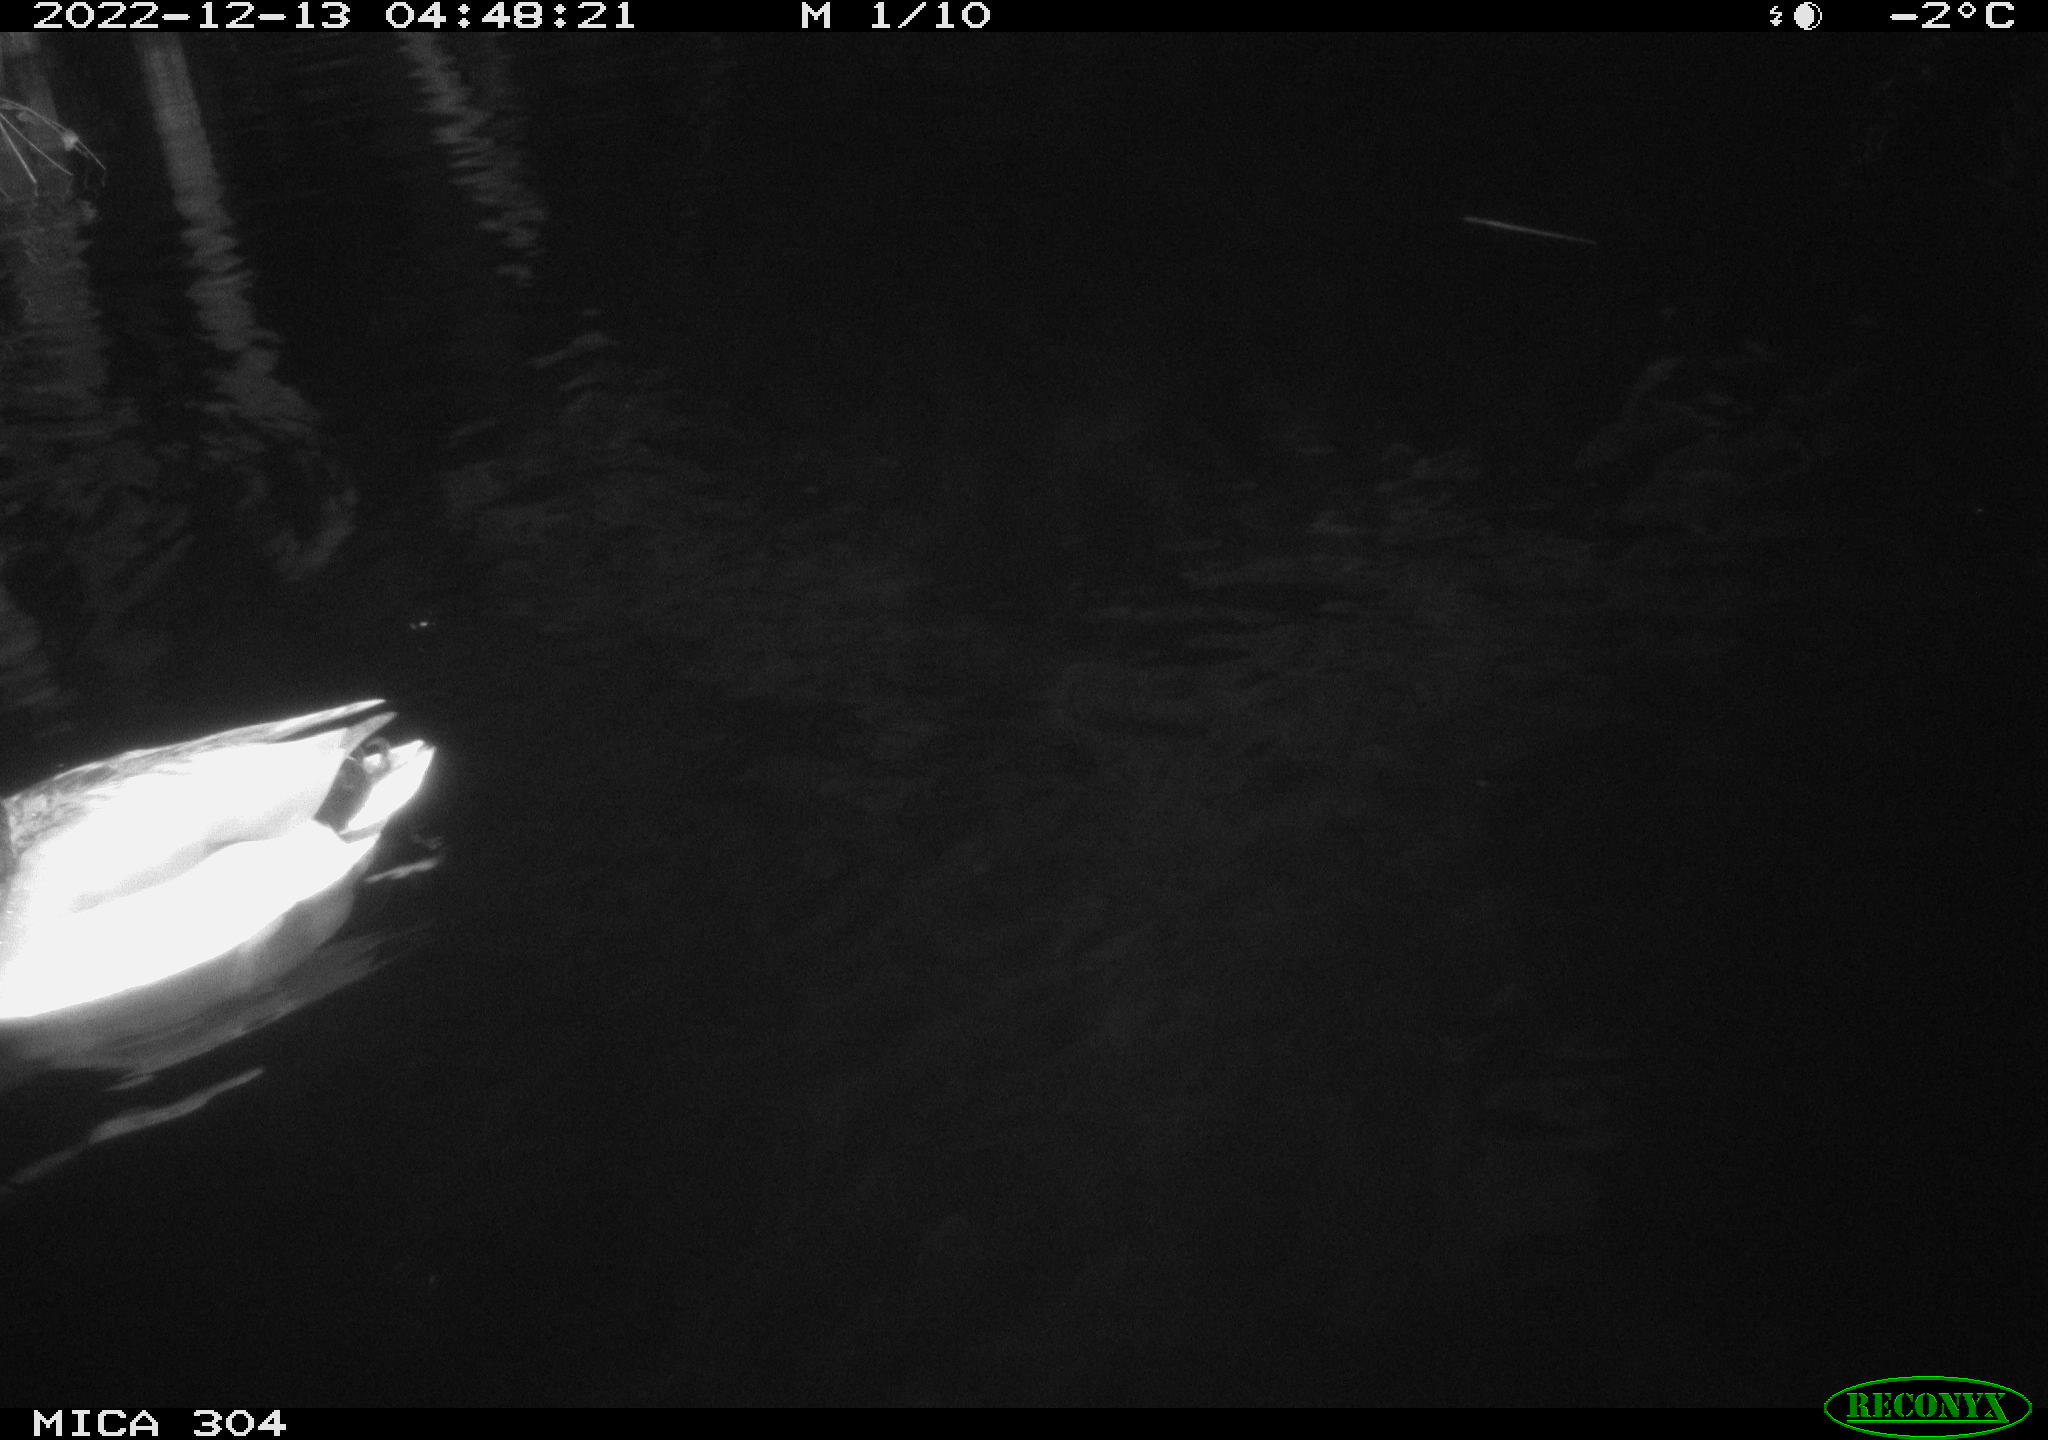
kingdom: Animalia
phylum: Chordata
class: Aves
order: Anseriformes
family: Anatidae
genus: Anas
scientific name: Anas
